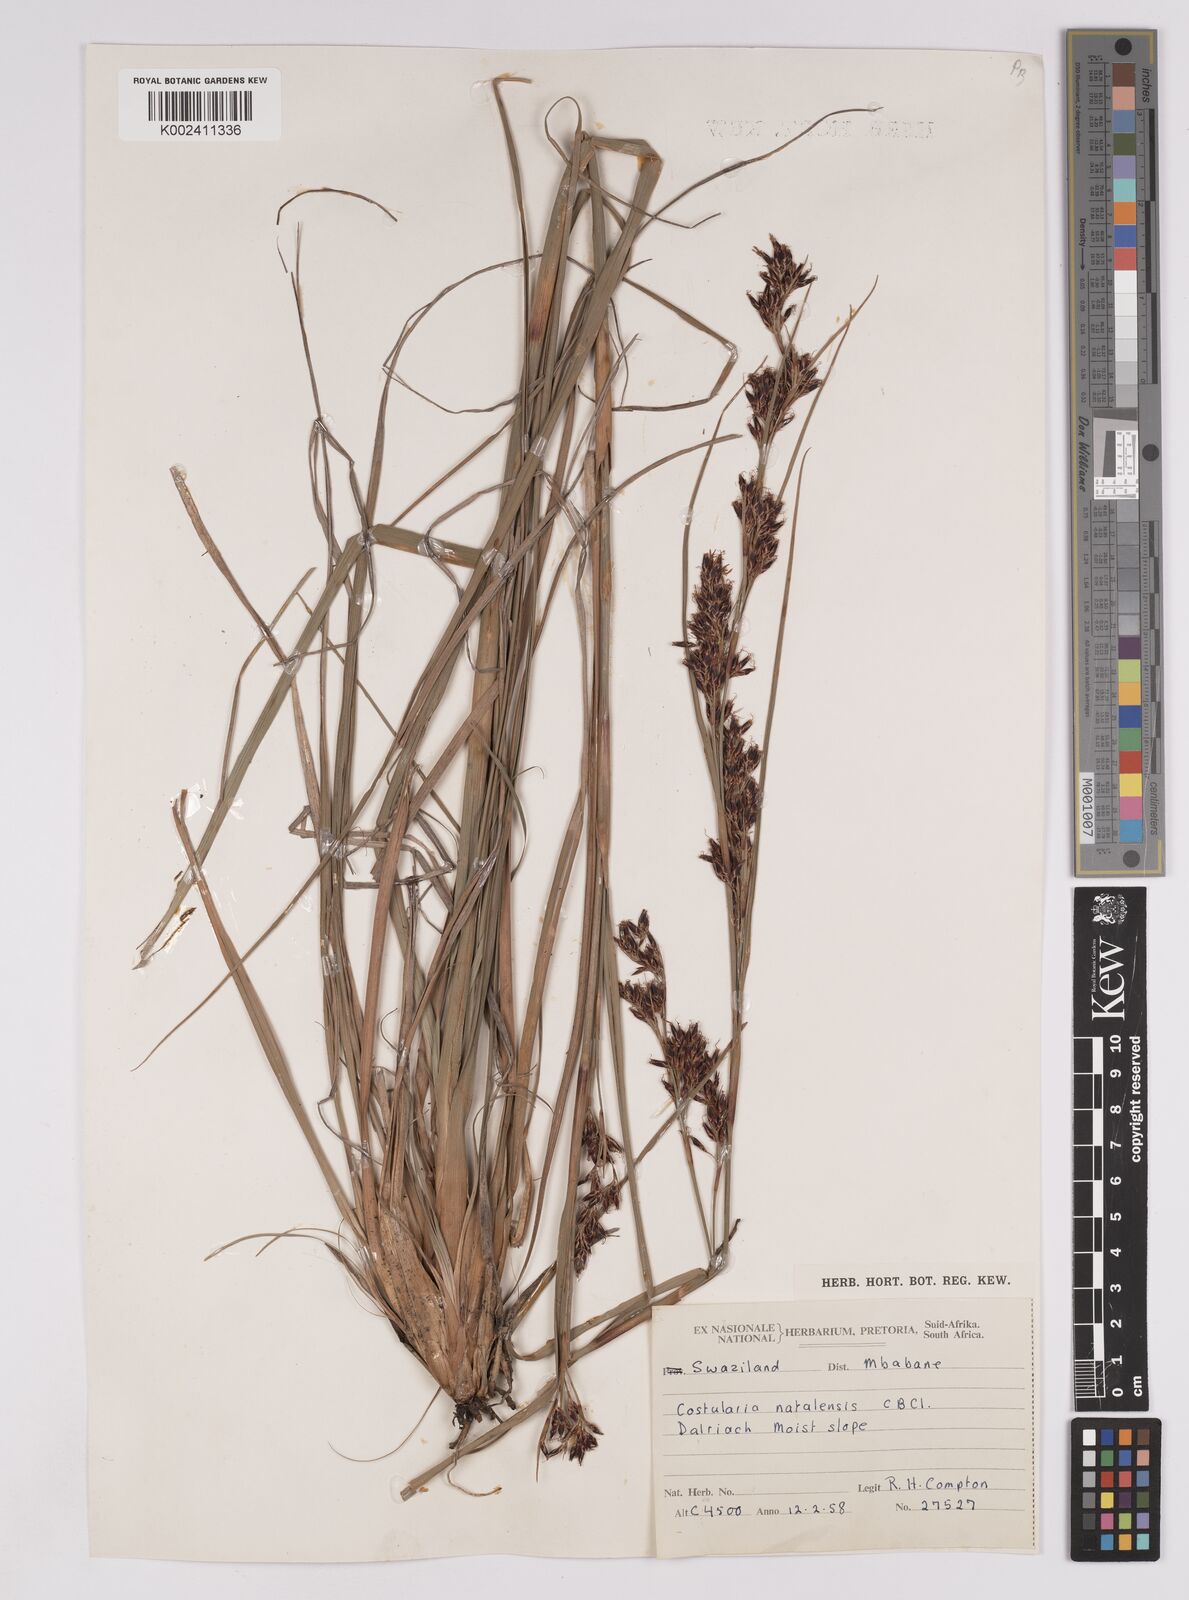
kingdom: Plantae
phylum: Tracheophyta
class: Liliopsida
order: Poales
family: Cyperaceae
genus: Costularia
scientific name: Costularia natalensis
